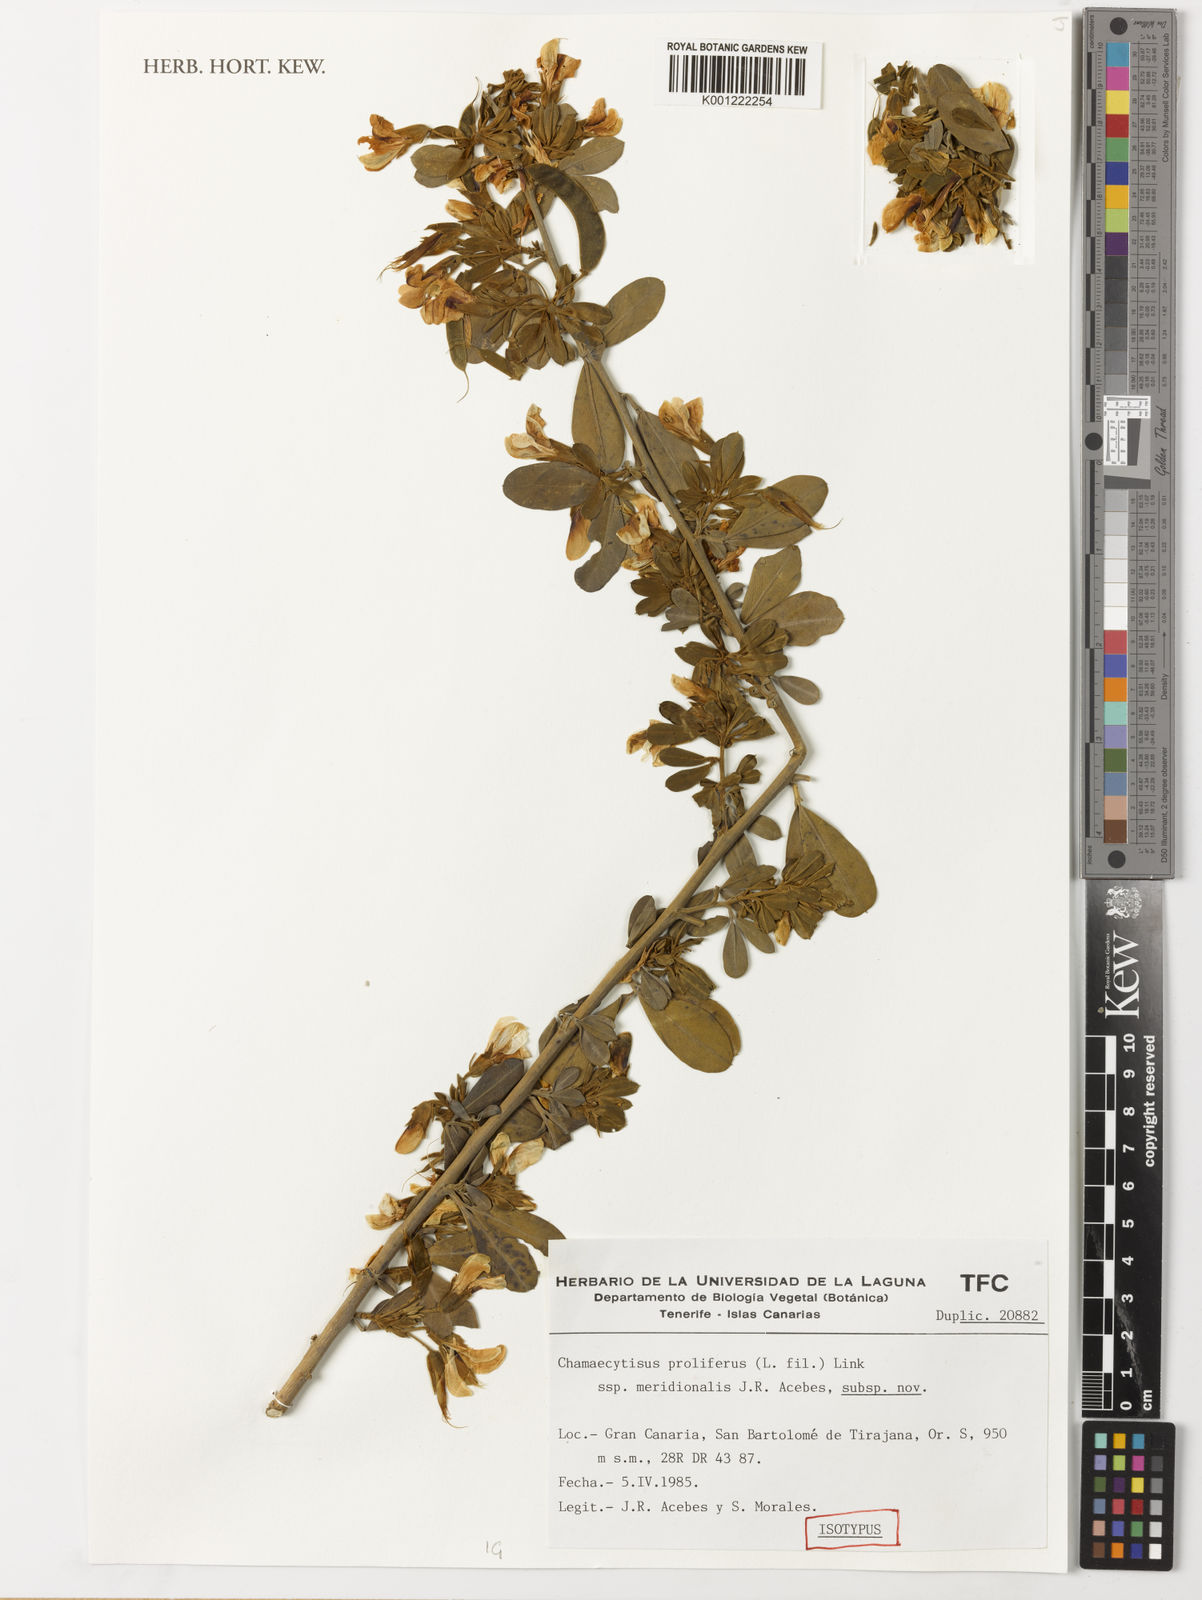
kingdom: Plantae
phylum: Tracheophyta
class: Magnoliopsida
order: Fabales
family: Fabaceae
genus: Chamaecytisus
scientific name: Chamaecytisus
